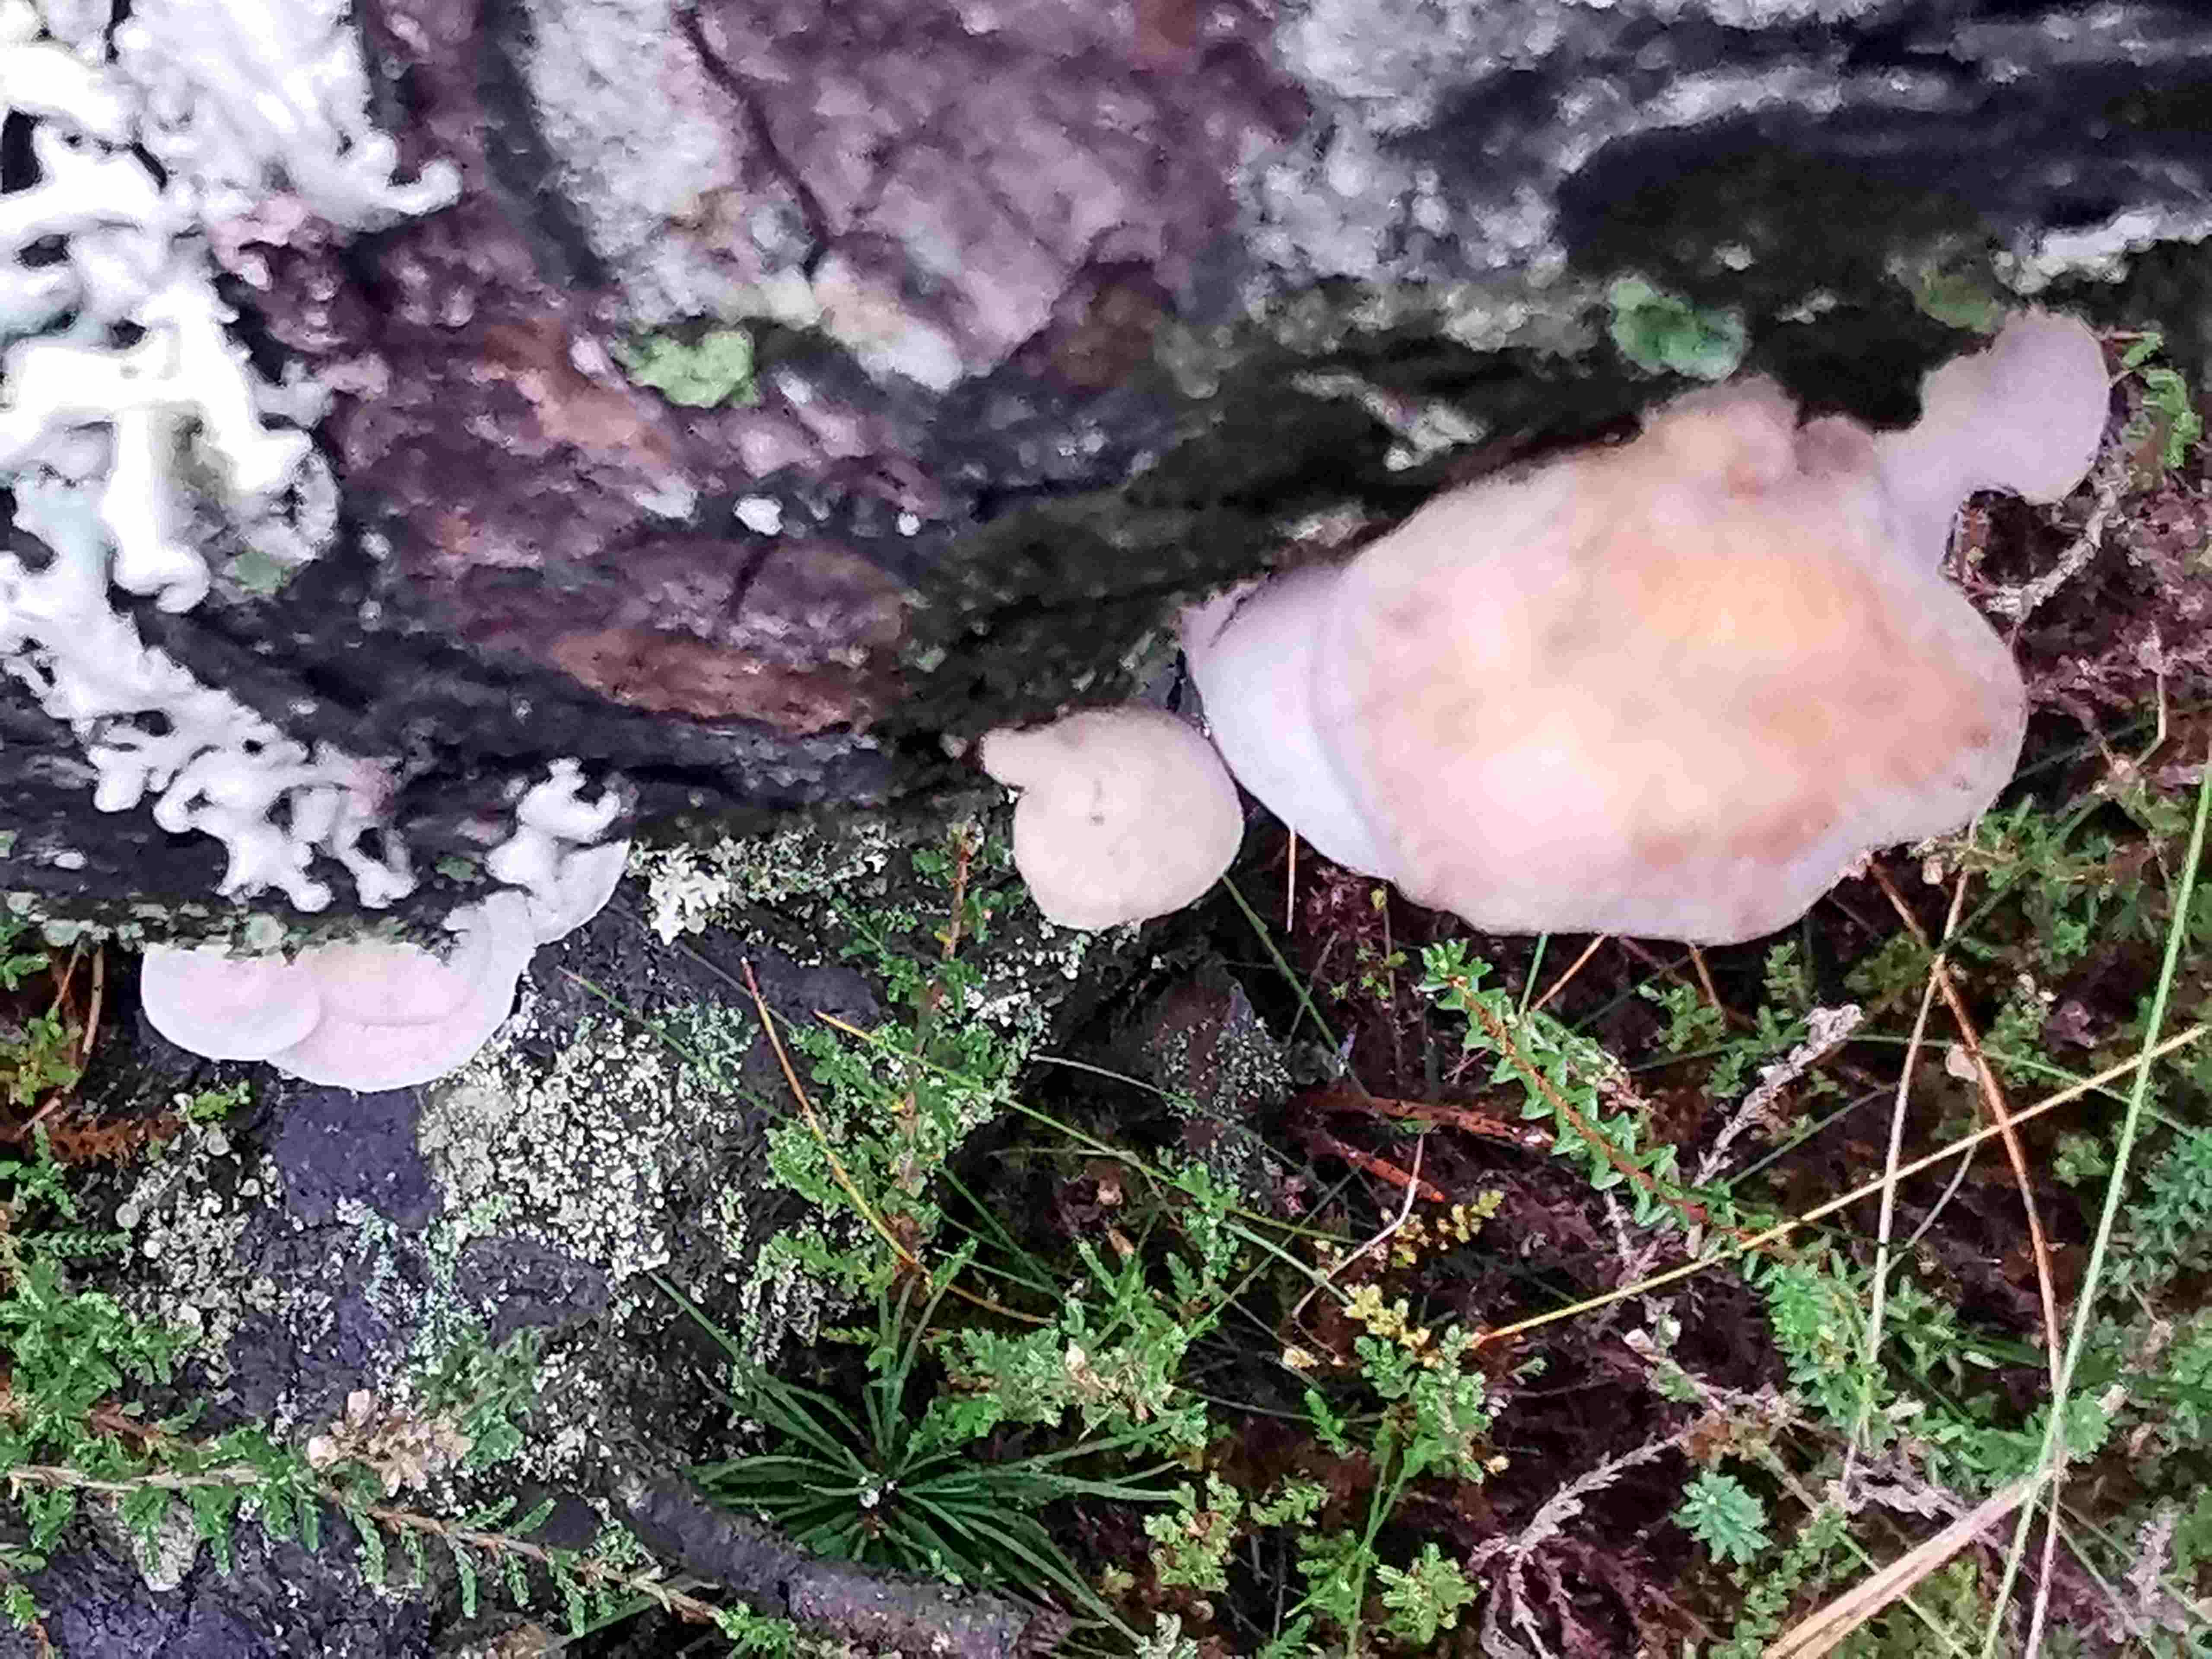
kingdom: Fungi
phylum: Basidiomycota
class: Agaricomycetes
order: Agaricales
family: Mycenaceae
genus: Panellus
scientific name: Panellus mitis
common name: mild epaulethat
